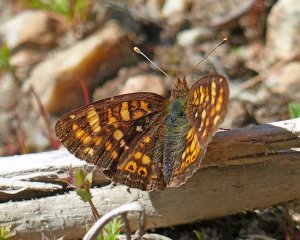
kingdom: Animalia
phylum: Arthropoda
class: Insecta
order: Lepidoptera
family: Nymphalidae
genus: Phyciodes
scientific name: Phyciodes tharos
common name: Field Crescent
